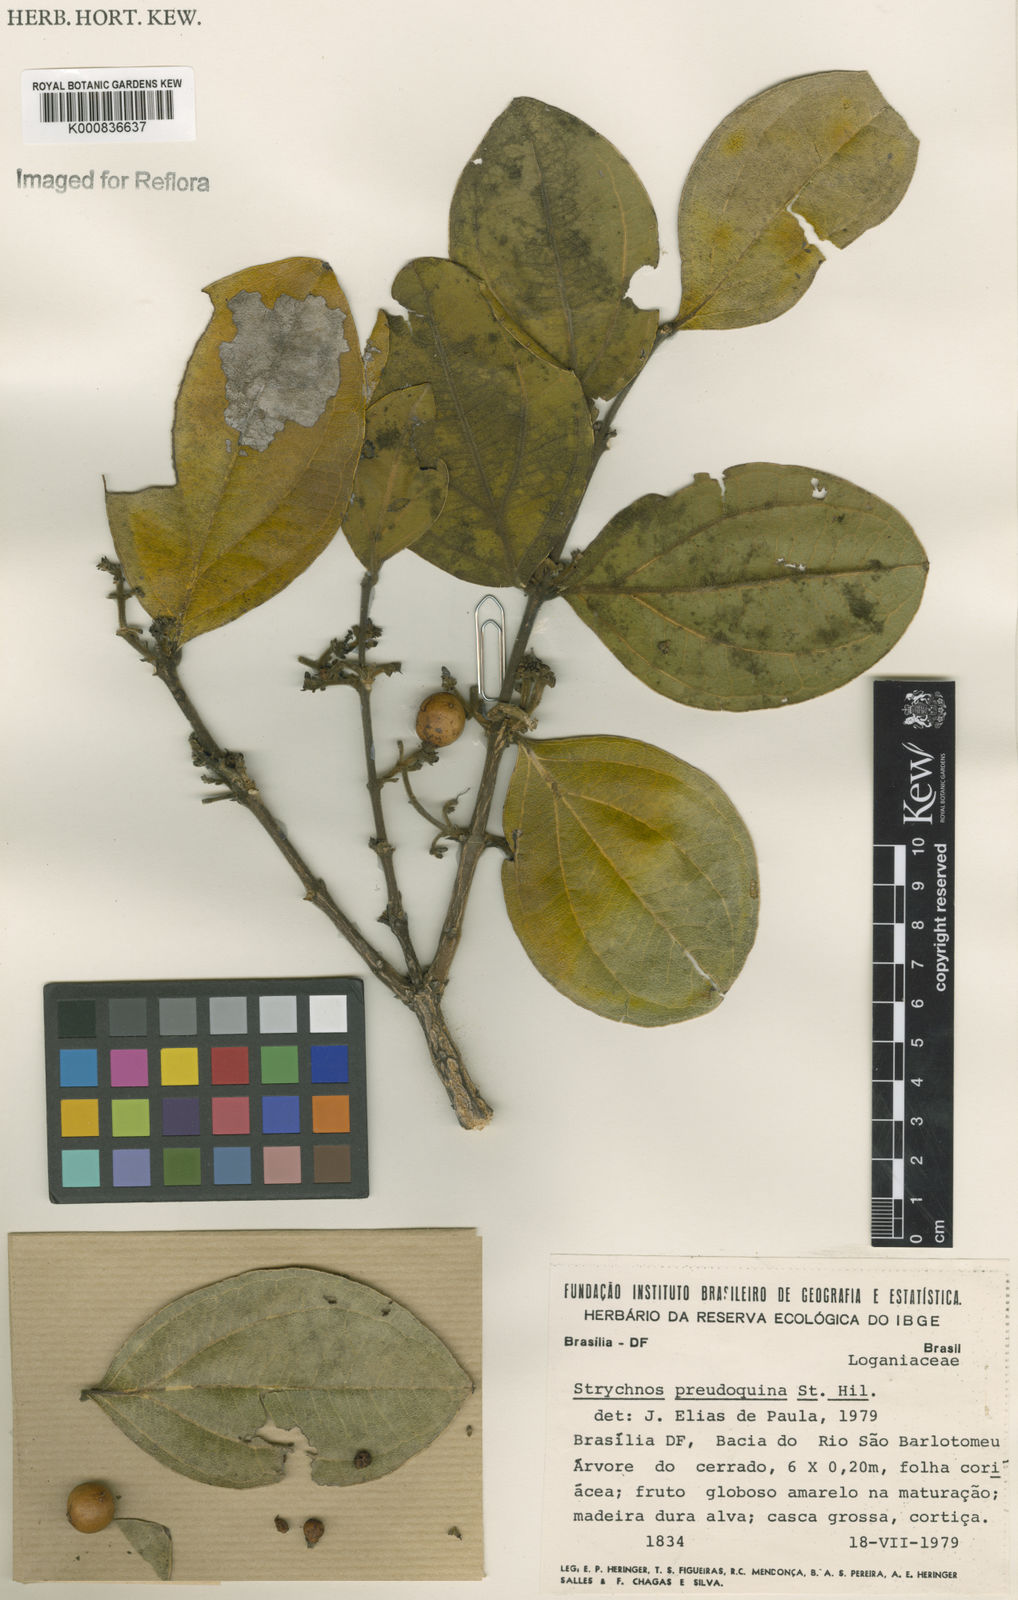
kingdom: Plantae
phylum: Tracheophyta
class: Magnoliopsida
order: Gentianales
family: Loganiaceae
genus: Strychnos
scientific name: Strychnos pseudoquina
